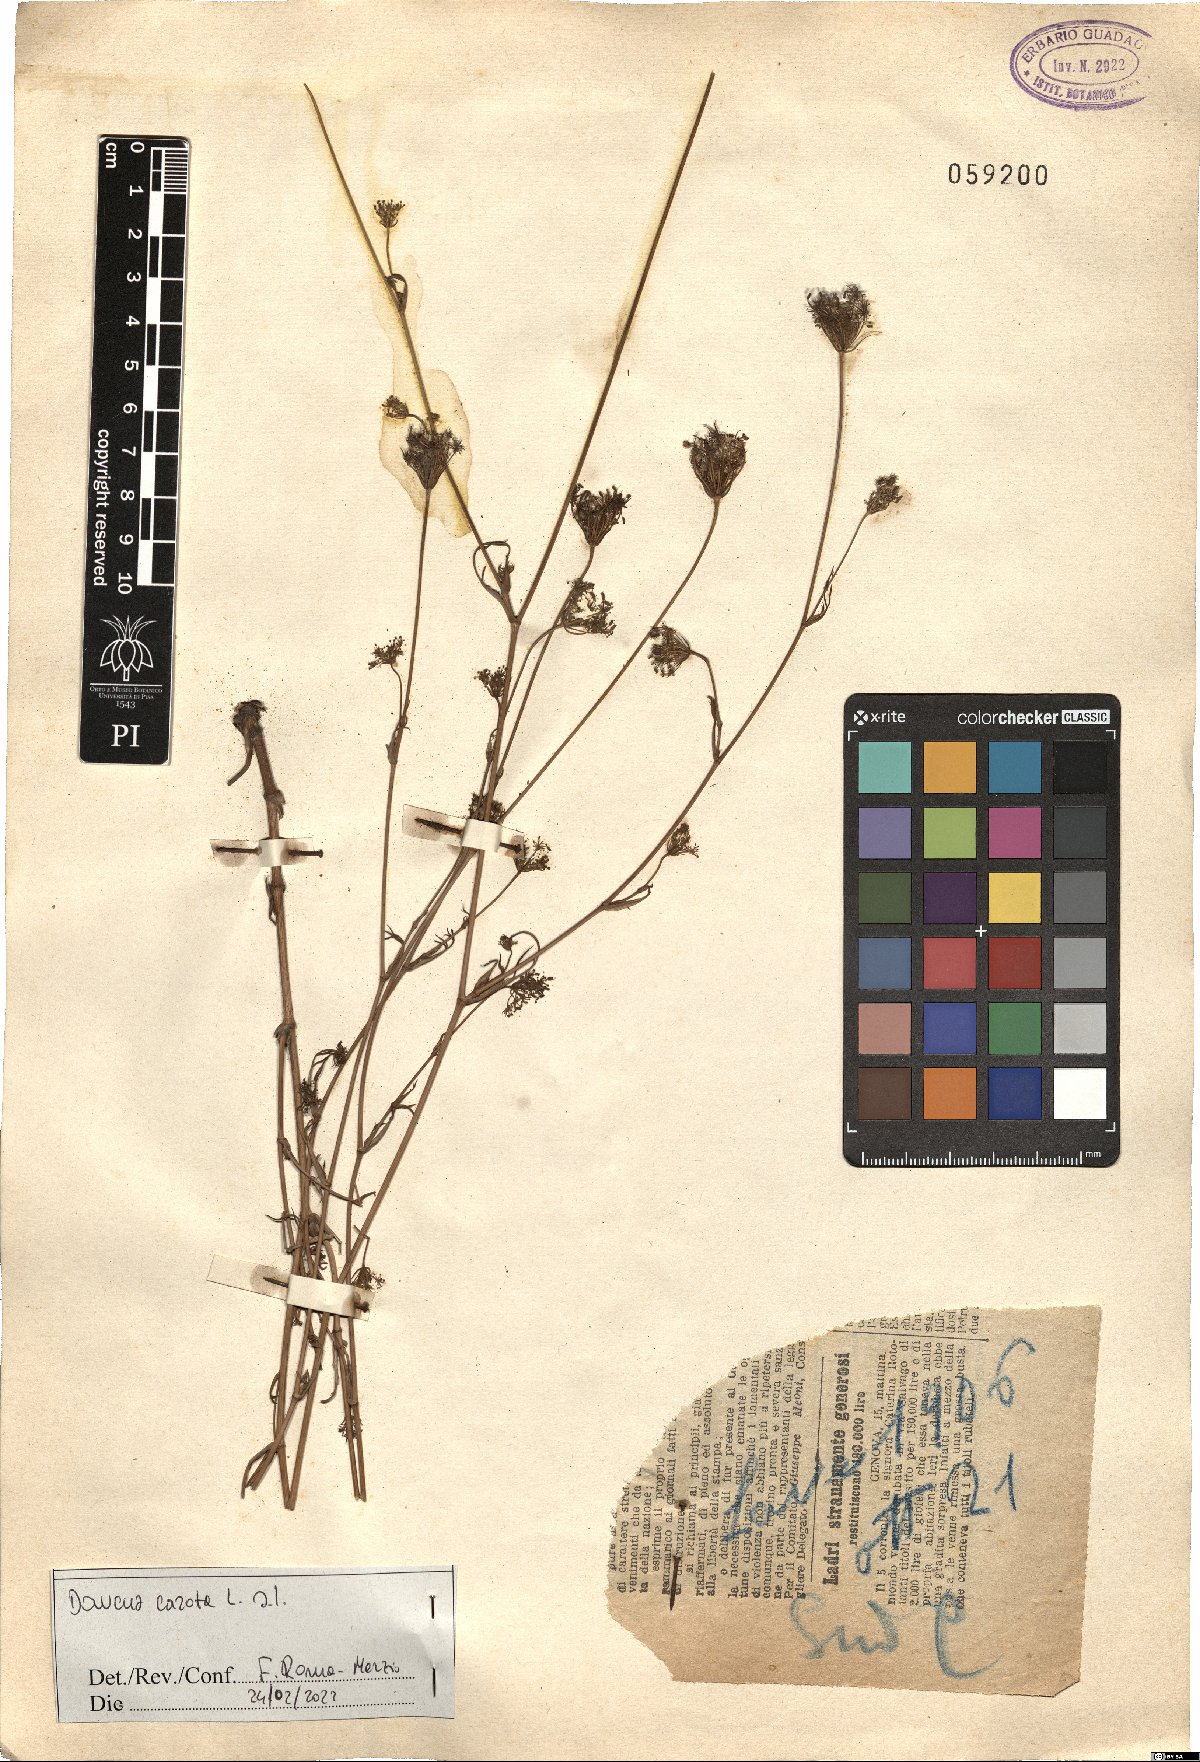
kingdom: Plantae
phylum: Tracheophyta
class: Magnoliopsida
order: Apiales
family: Apiaceae
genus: Daucus
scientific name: Daucus carota
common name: Wild carrot
